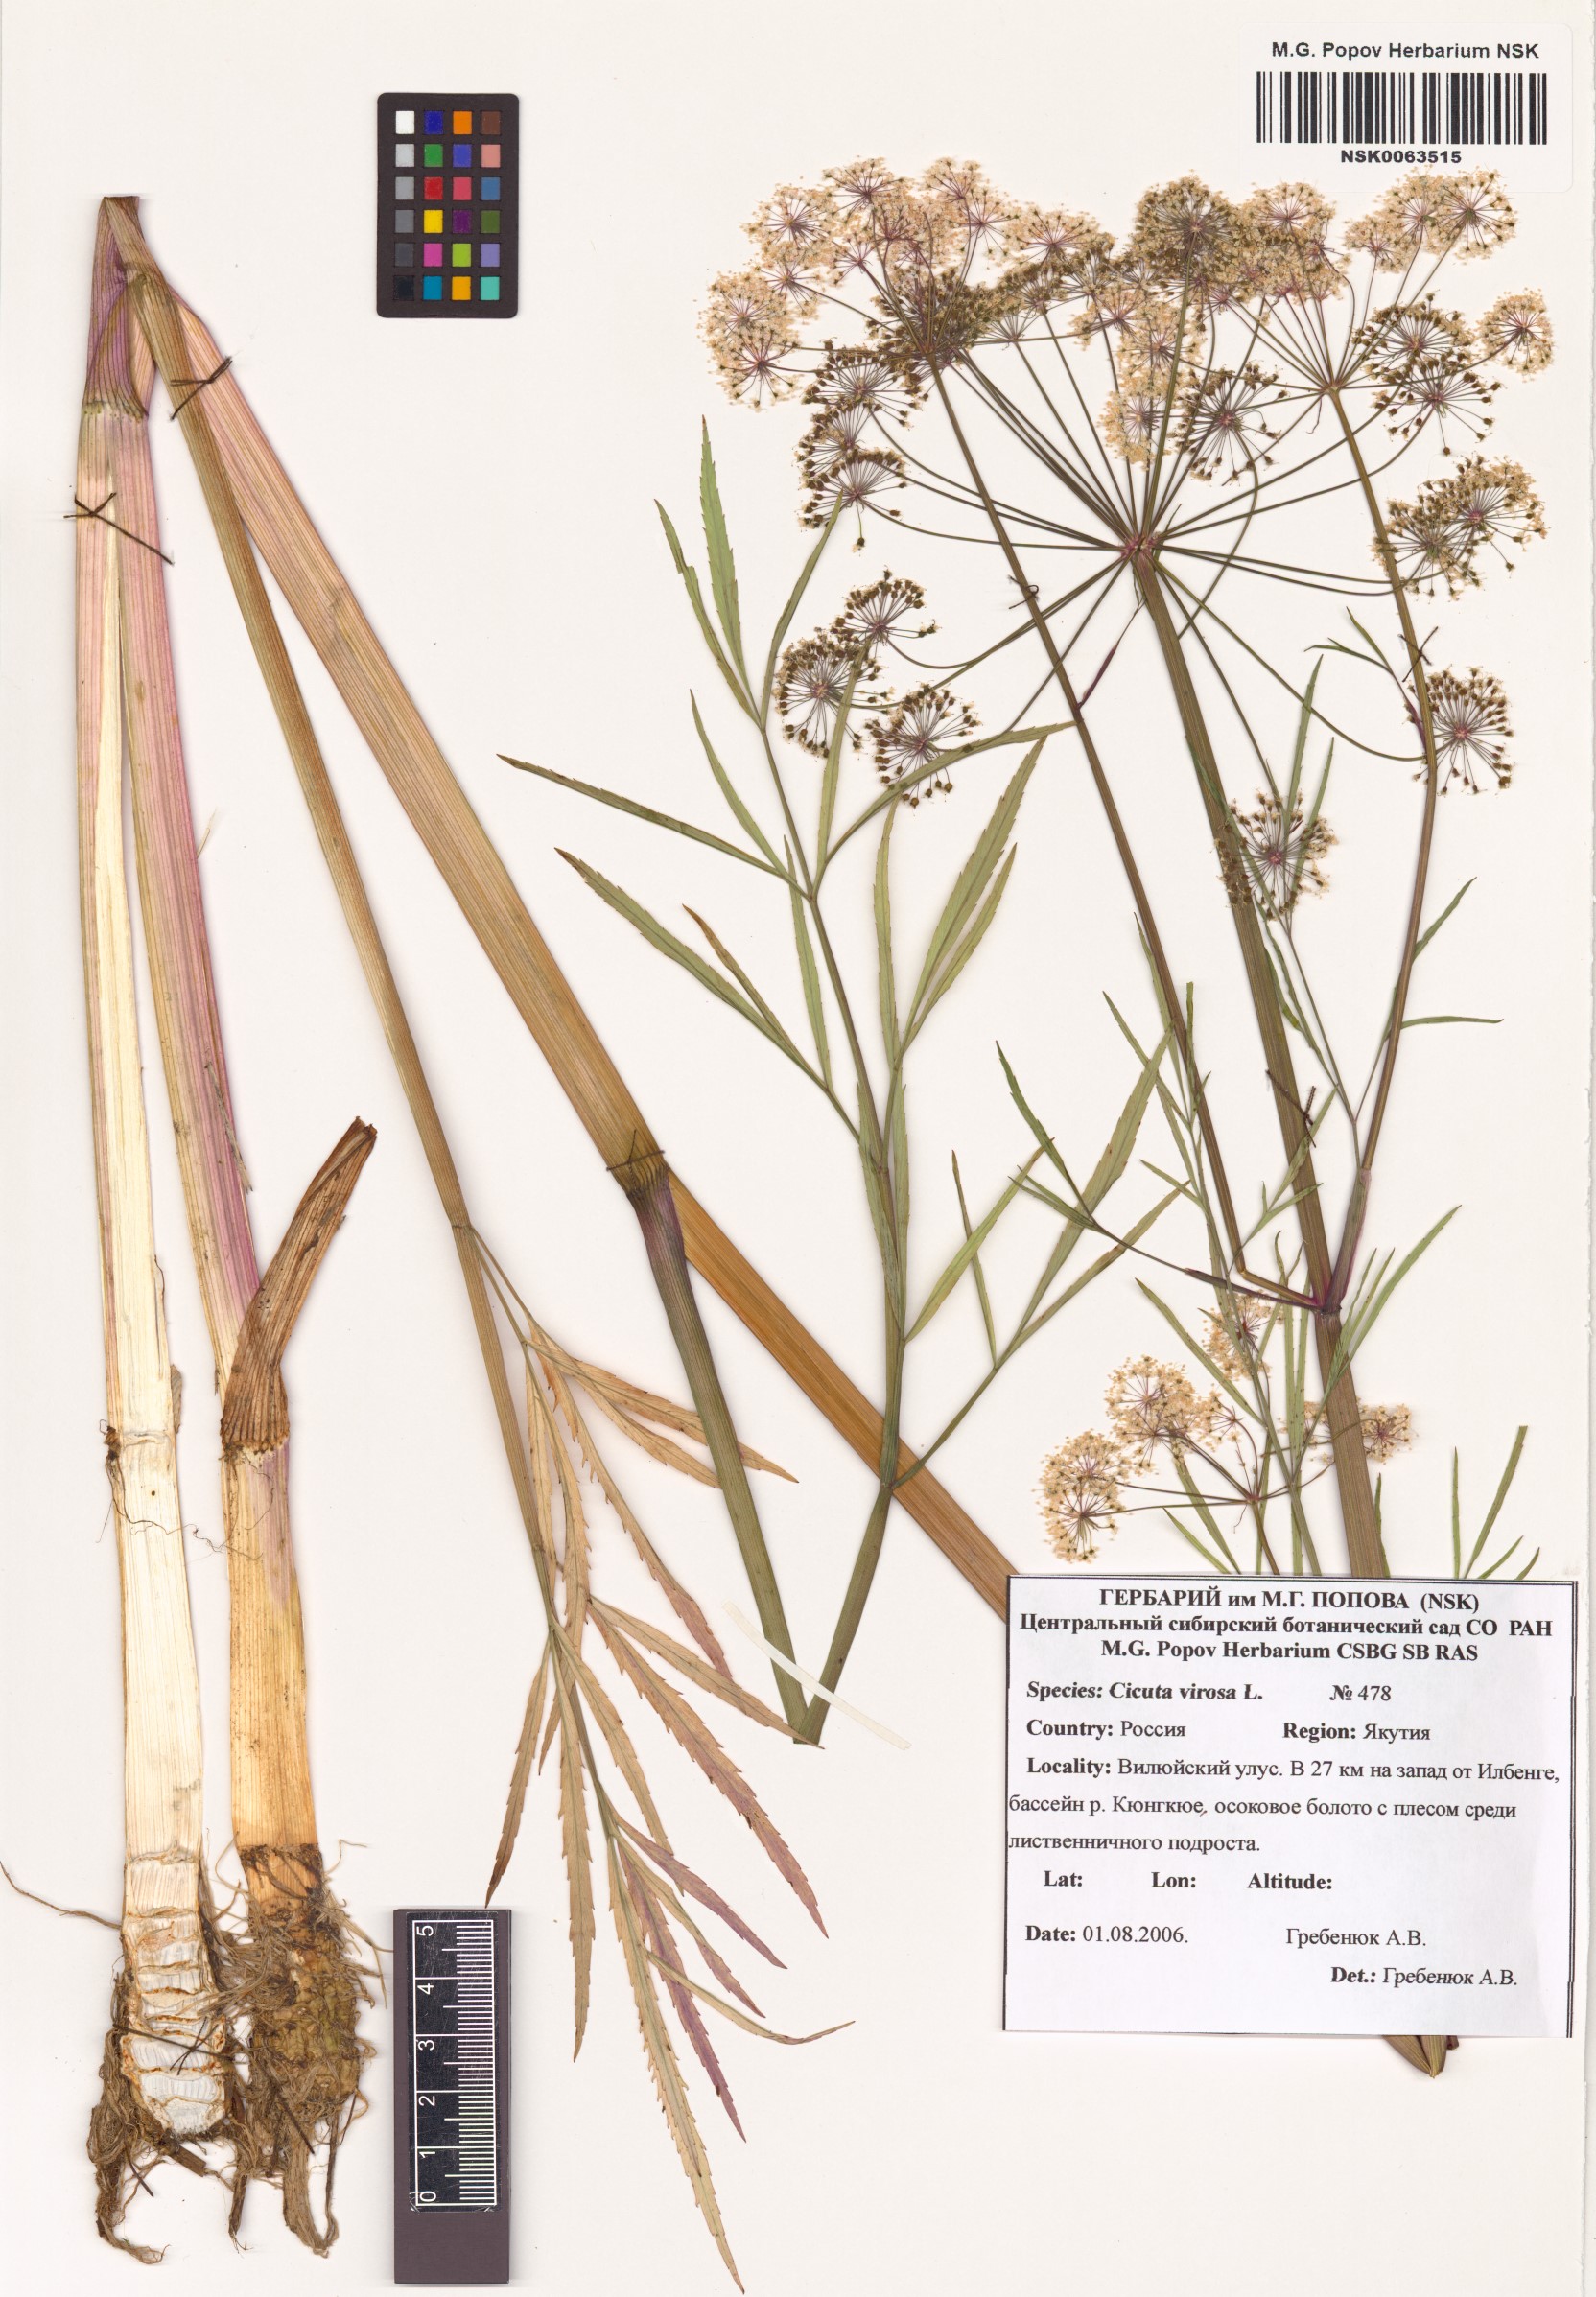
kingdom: Plantae
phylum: Tracheophyta
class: Magnoliopsida
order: Apiales
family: Apiaceae
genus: Cicuta
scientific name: Cicuta virosa
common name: Cowbane
